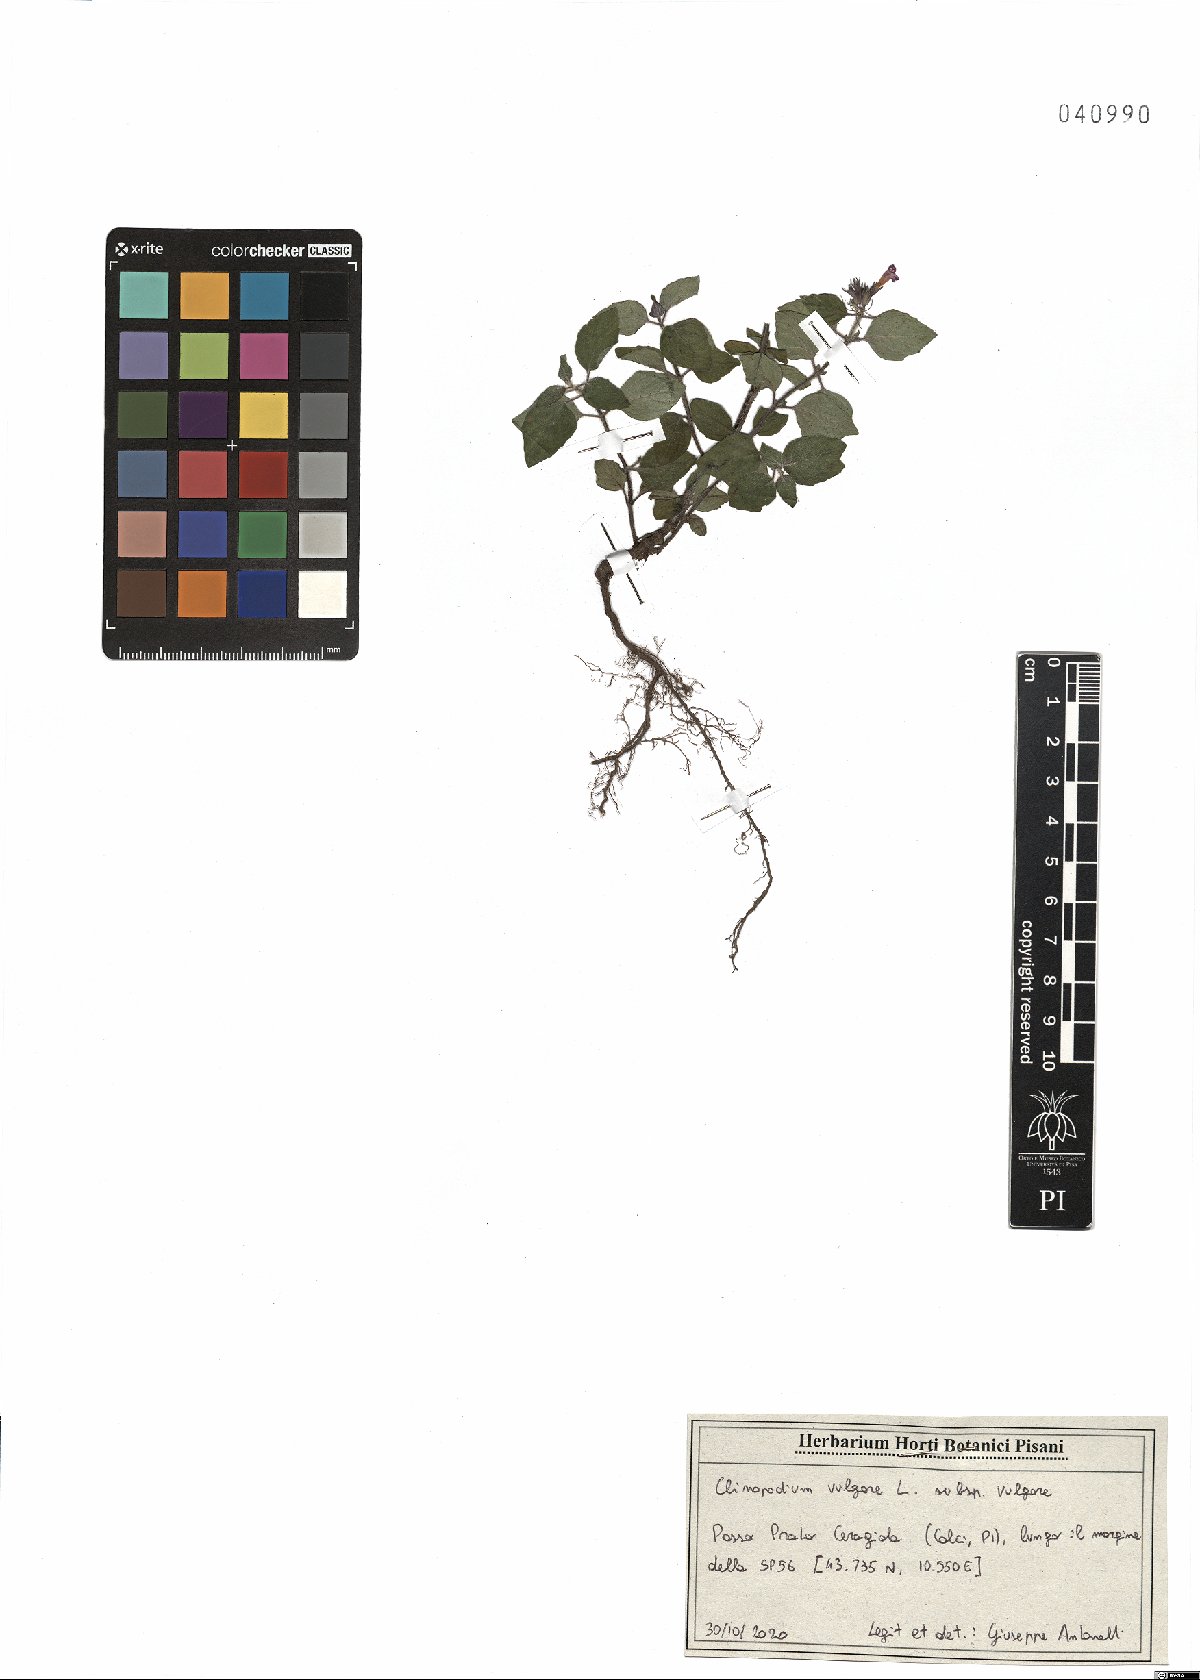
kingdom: Plantae
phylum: Tracheophyta
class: Magnoliopsida
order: Lamiales
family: Lamiaceae
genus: Clinopodium
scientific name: Clinopodium vulgare
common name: Wild basil
